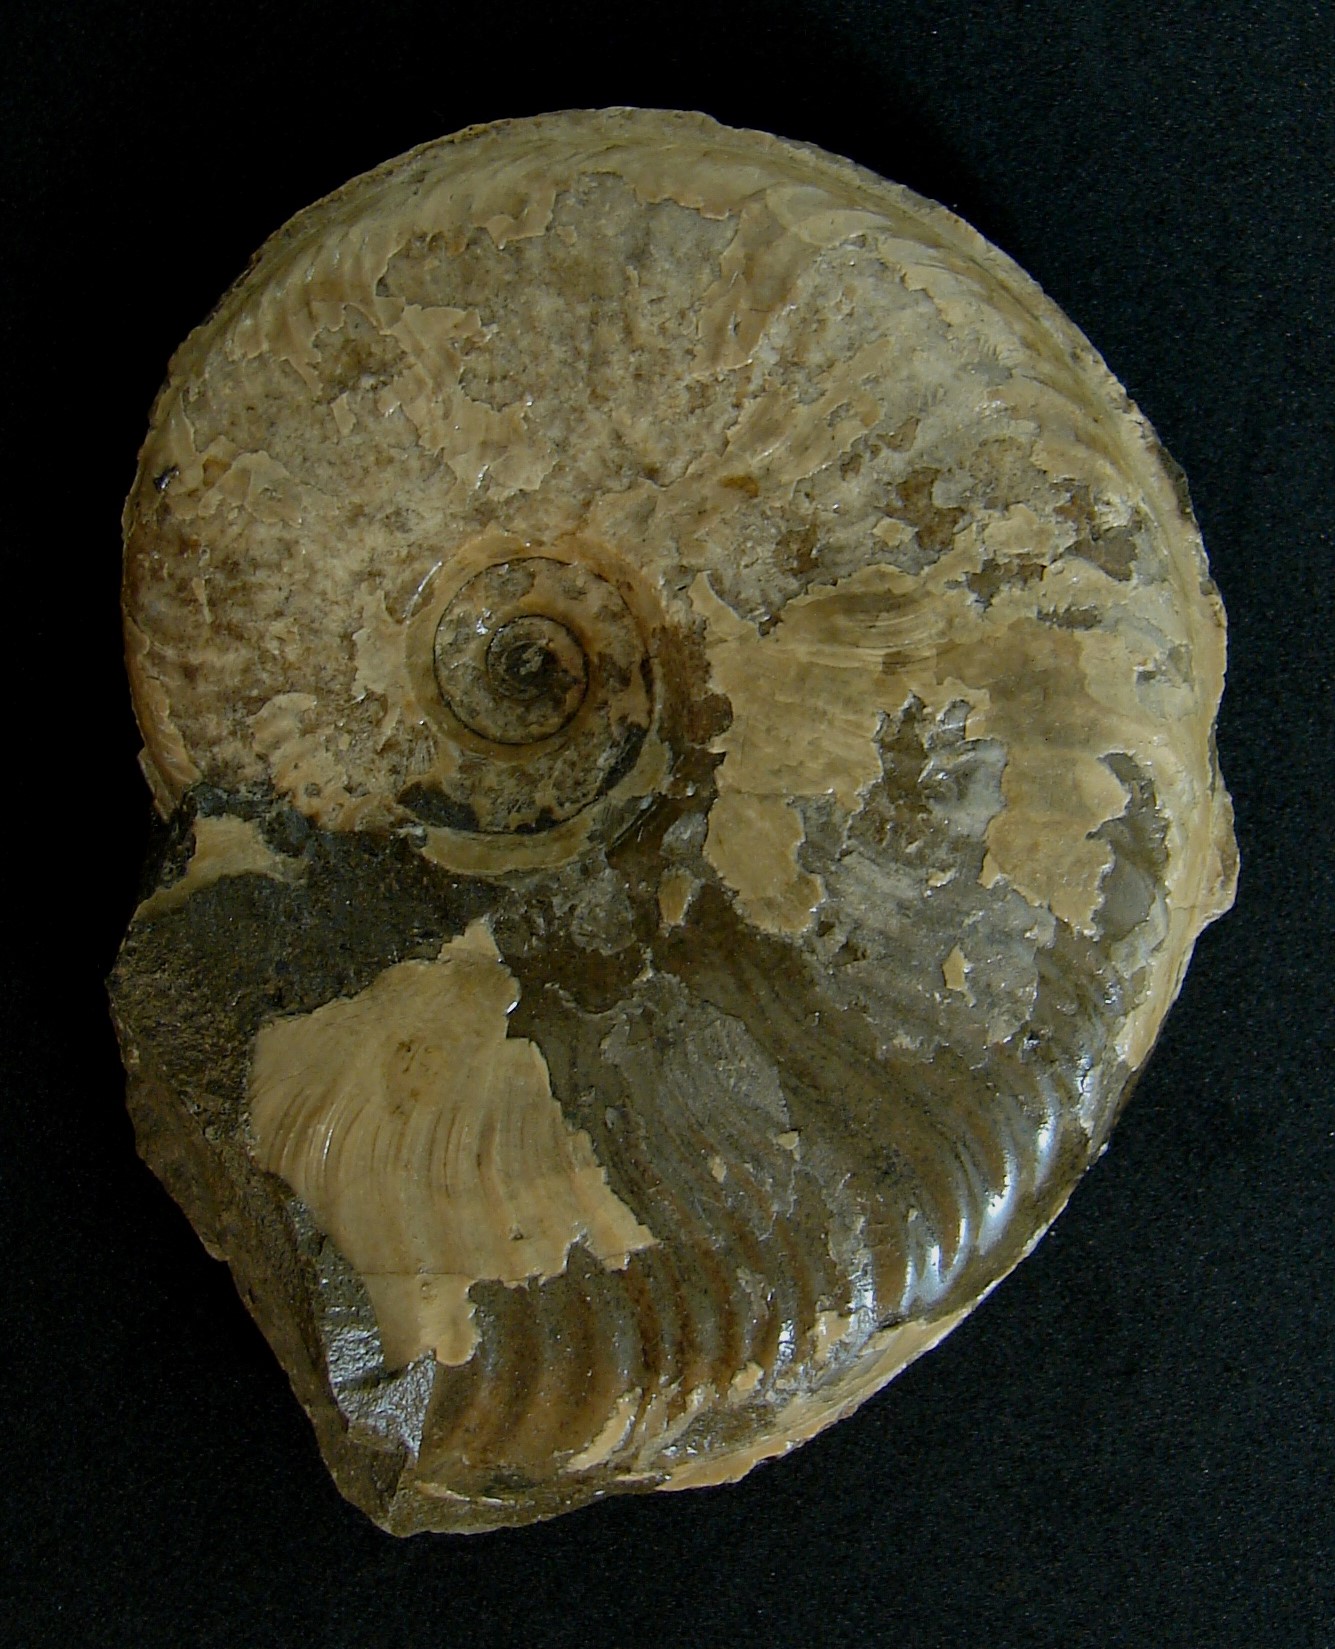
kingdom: Animalia
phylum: Mollusca
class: Cephalopoda
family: Hildoceratidae
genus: Harpoceras
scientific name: Harpoceras falciferum
